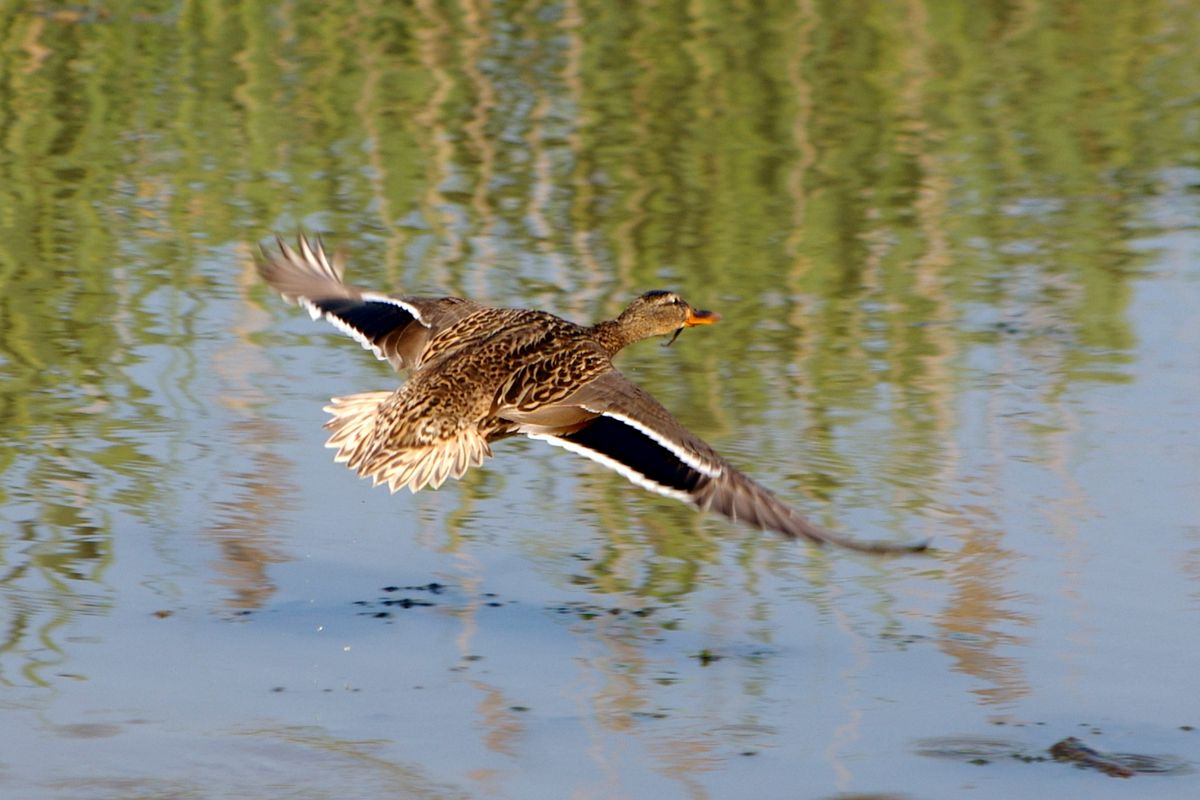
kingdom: Animalia
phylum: Chordata
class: Aves
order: Anseriformes
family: Anatidae
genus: Anas
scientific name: Anas platyrhynchos
